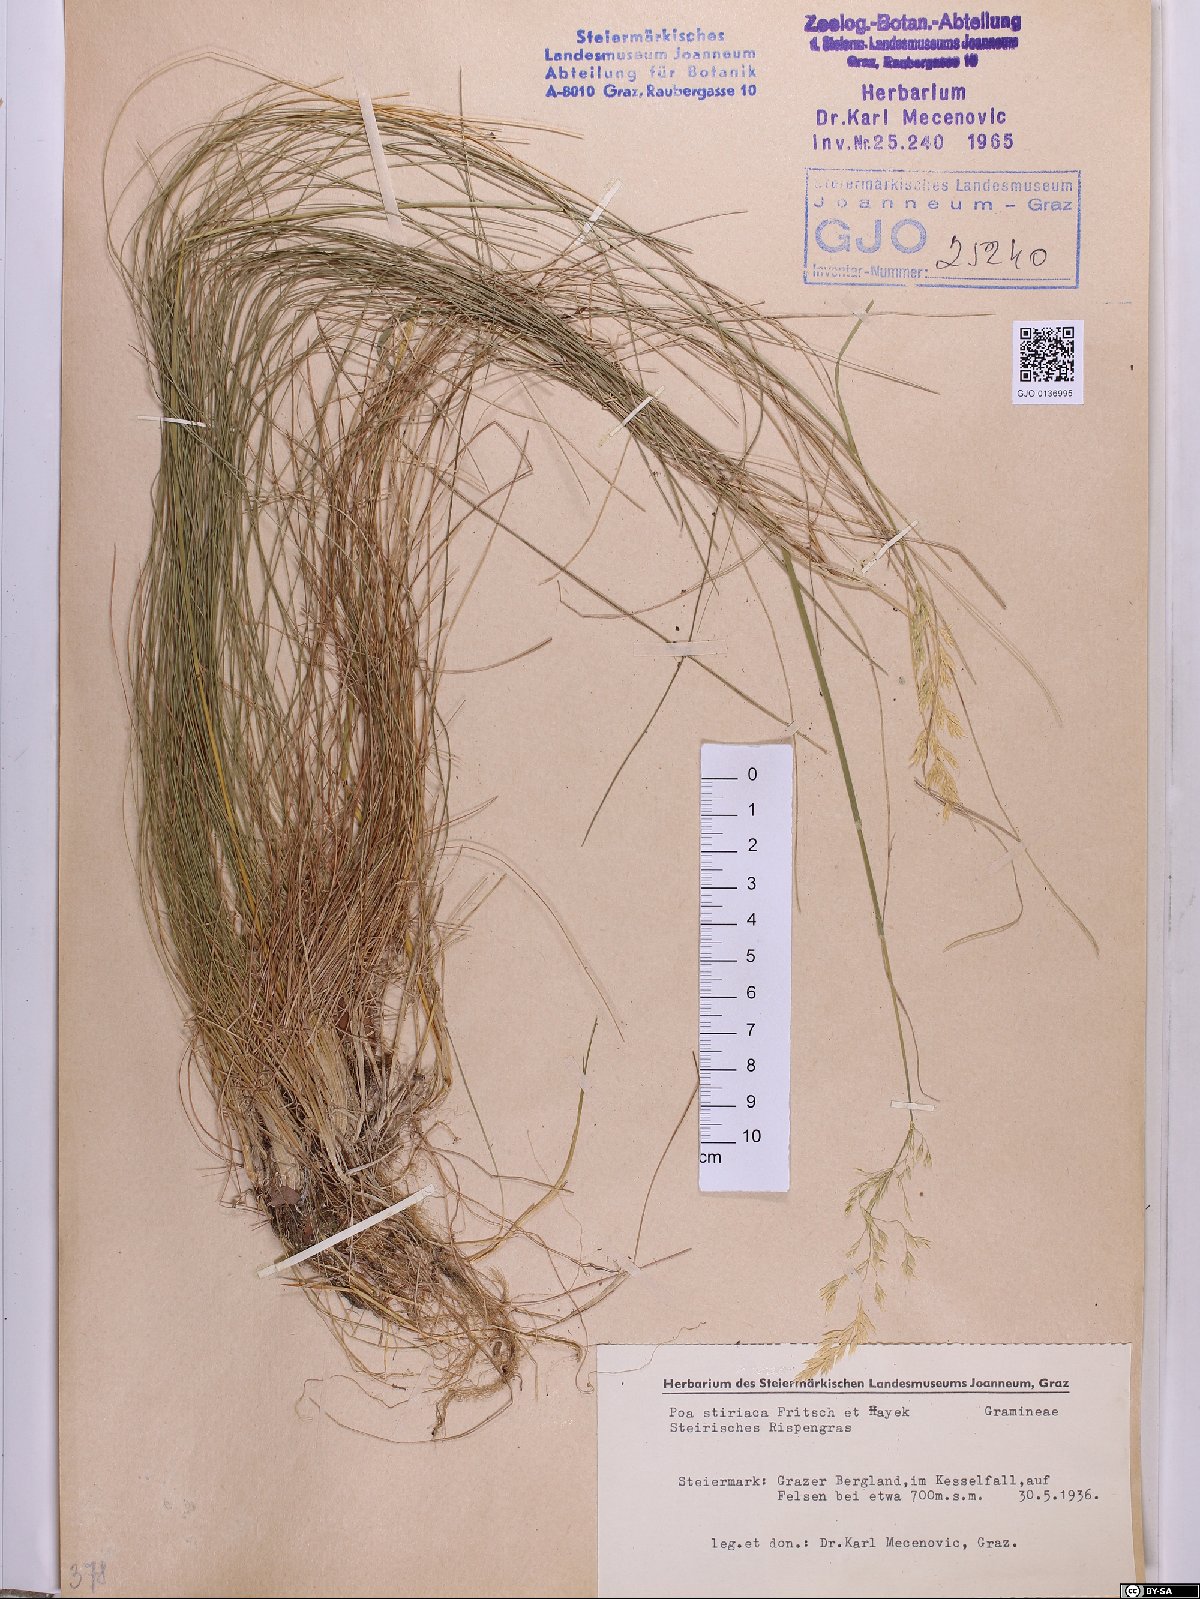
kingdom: Plantae
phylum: Tracheophyta
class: Liliopsida
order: Poales
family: Poaceae
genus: Poa
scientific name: Poa stiriaca
